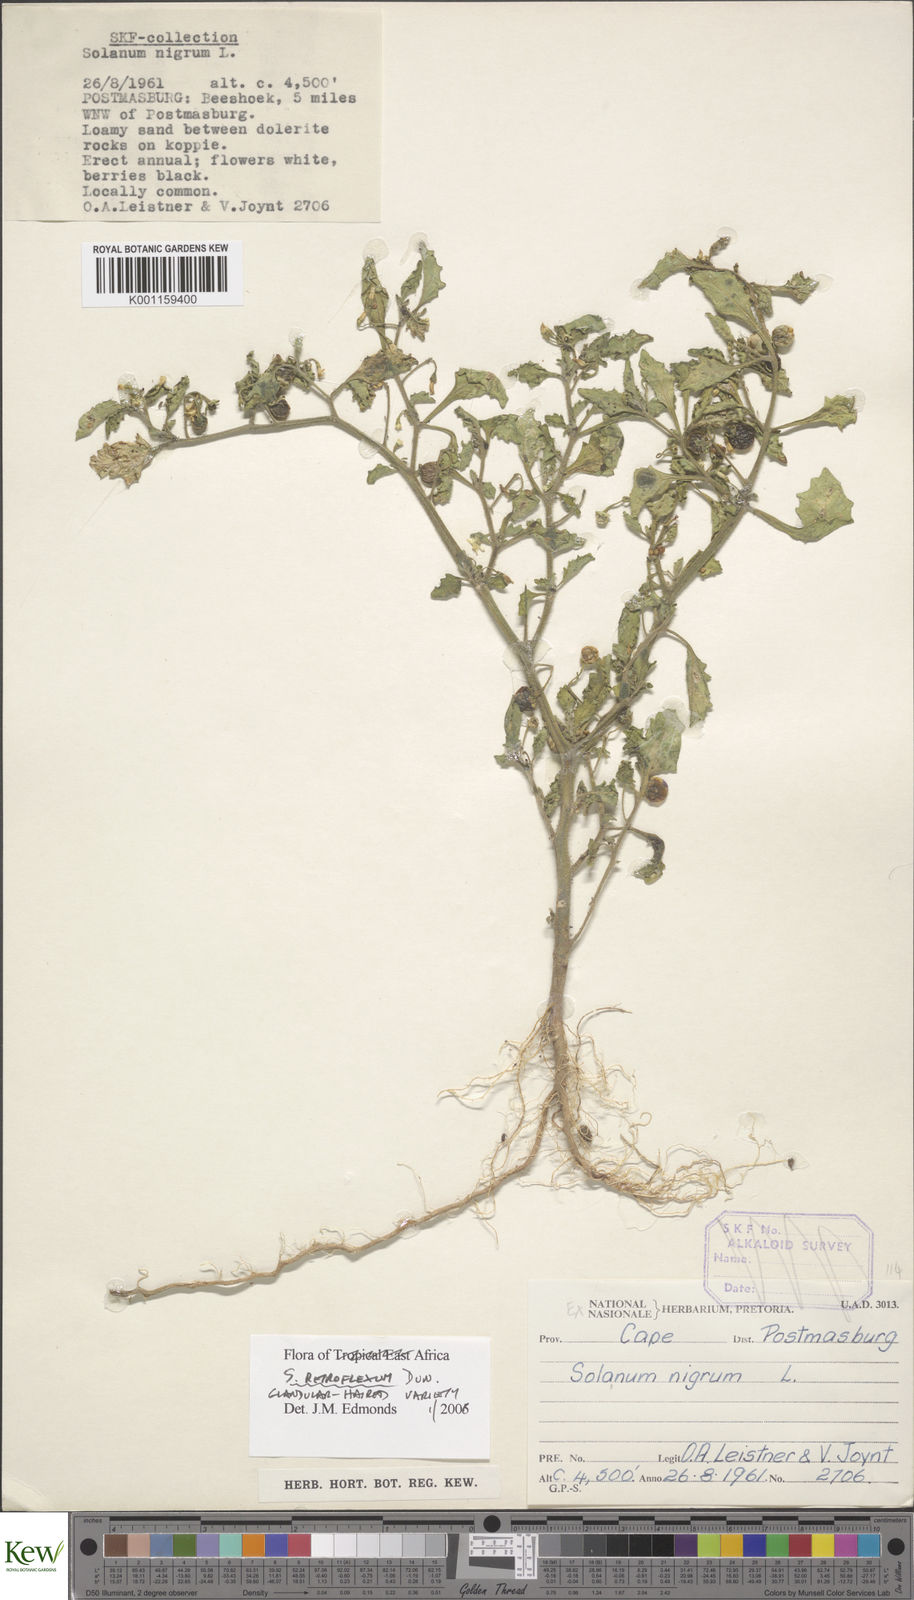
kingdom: Plantae
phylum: Tracheophyta
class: Magnoliopsida
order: Solanales
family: Solanaceae
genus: Solanum
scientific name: Solanum retroflexum
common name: Wonderberry
